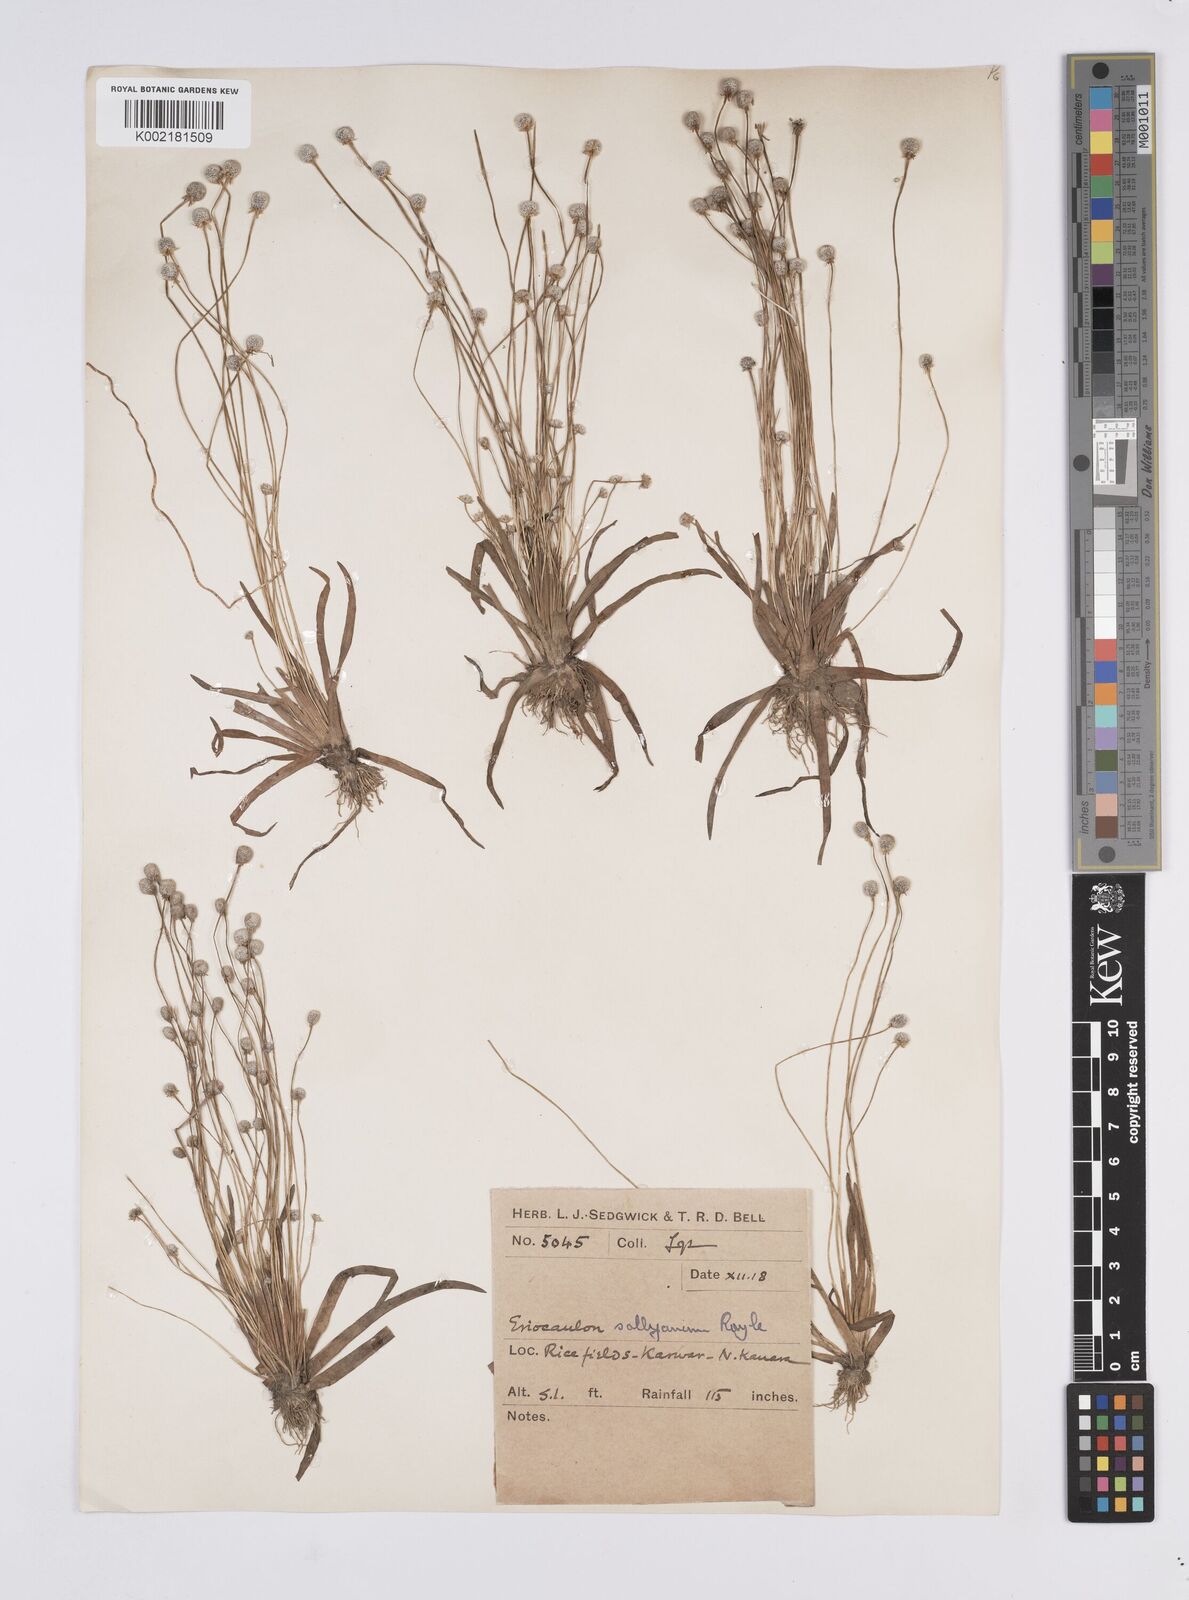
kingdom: Plantae
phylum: Tracheophyta
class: Liliopsida
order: Poales
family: Eriocaulaceae
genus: Eriocaulon
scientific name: Eriocaulon sollyanum
